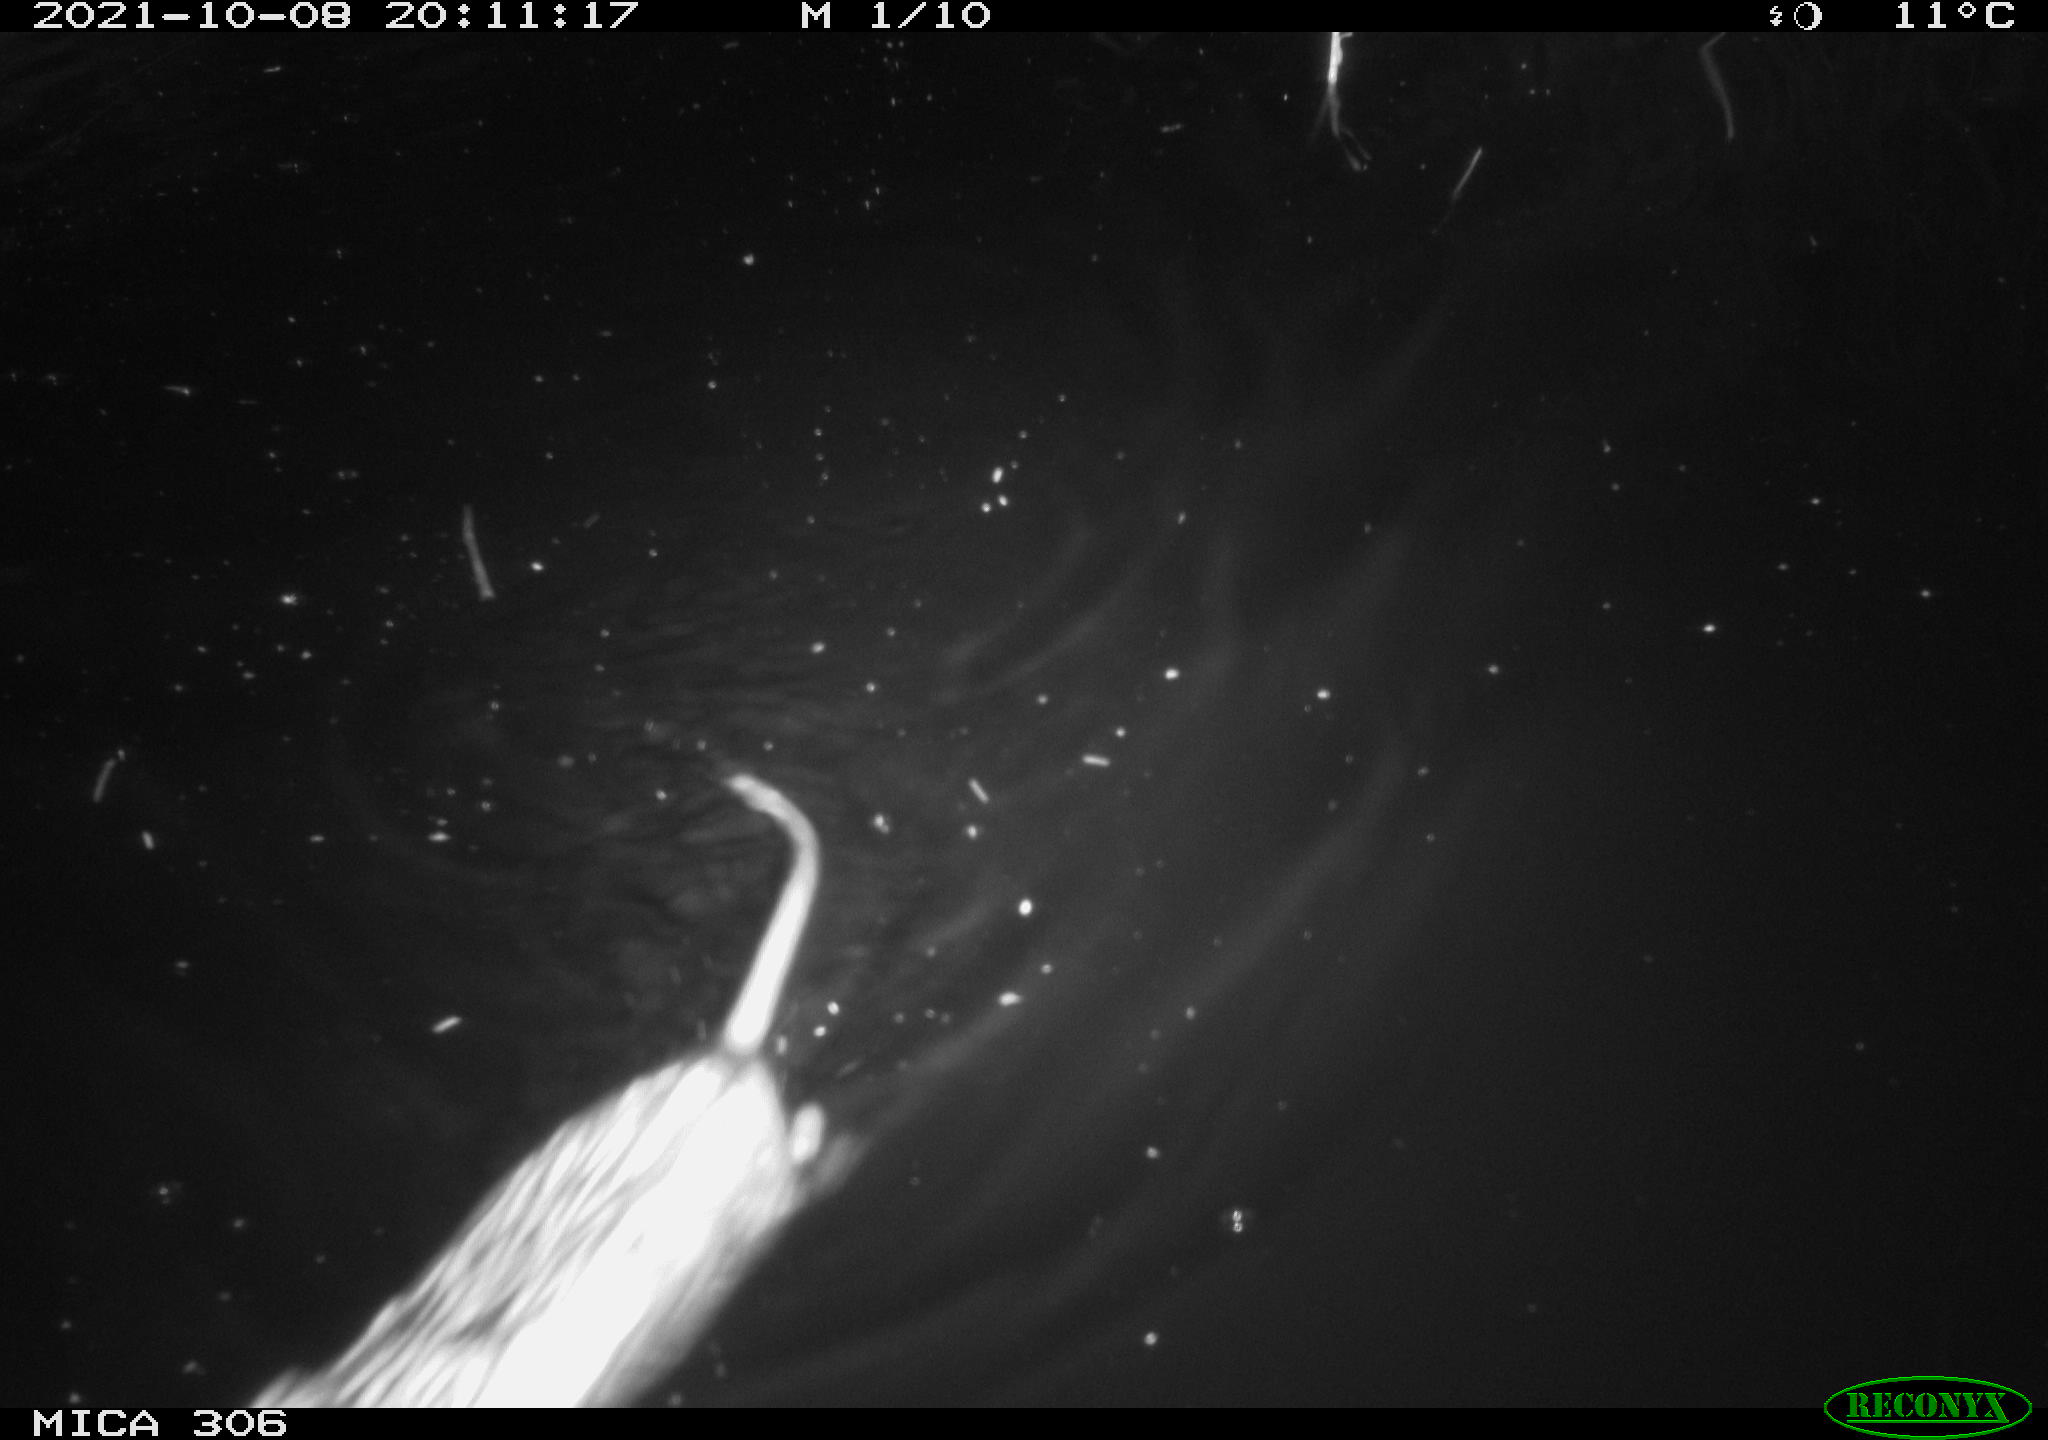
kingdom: Animalia
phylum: Chordata
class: Mammalia
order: Rodentia
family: Cricetidae
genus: Ondatra
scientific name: Ondatra zibethicus
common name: Muskrat
